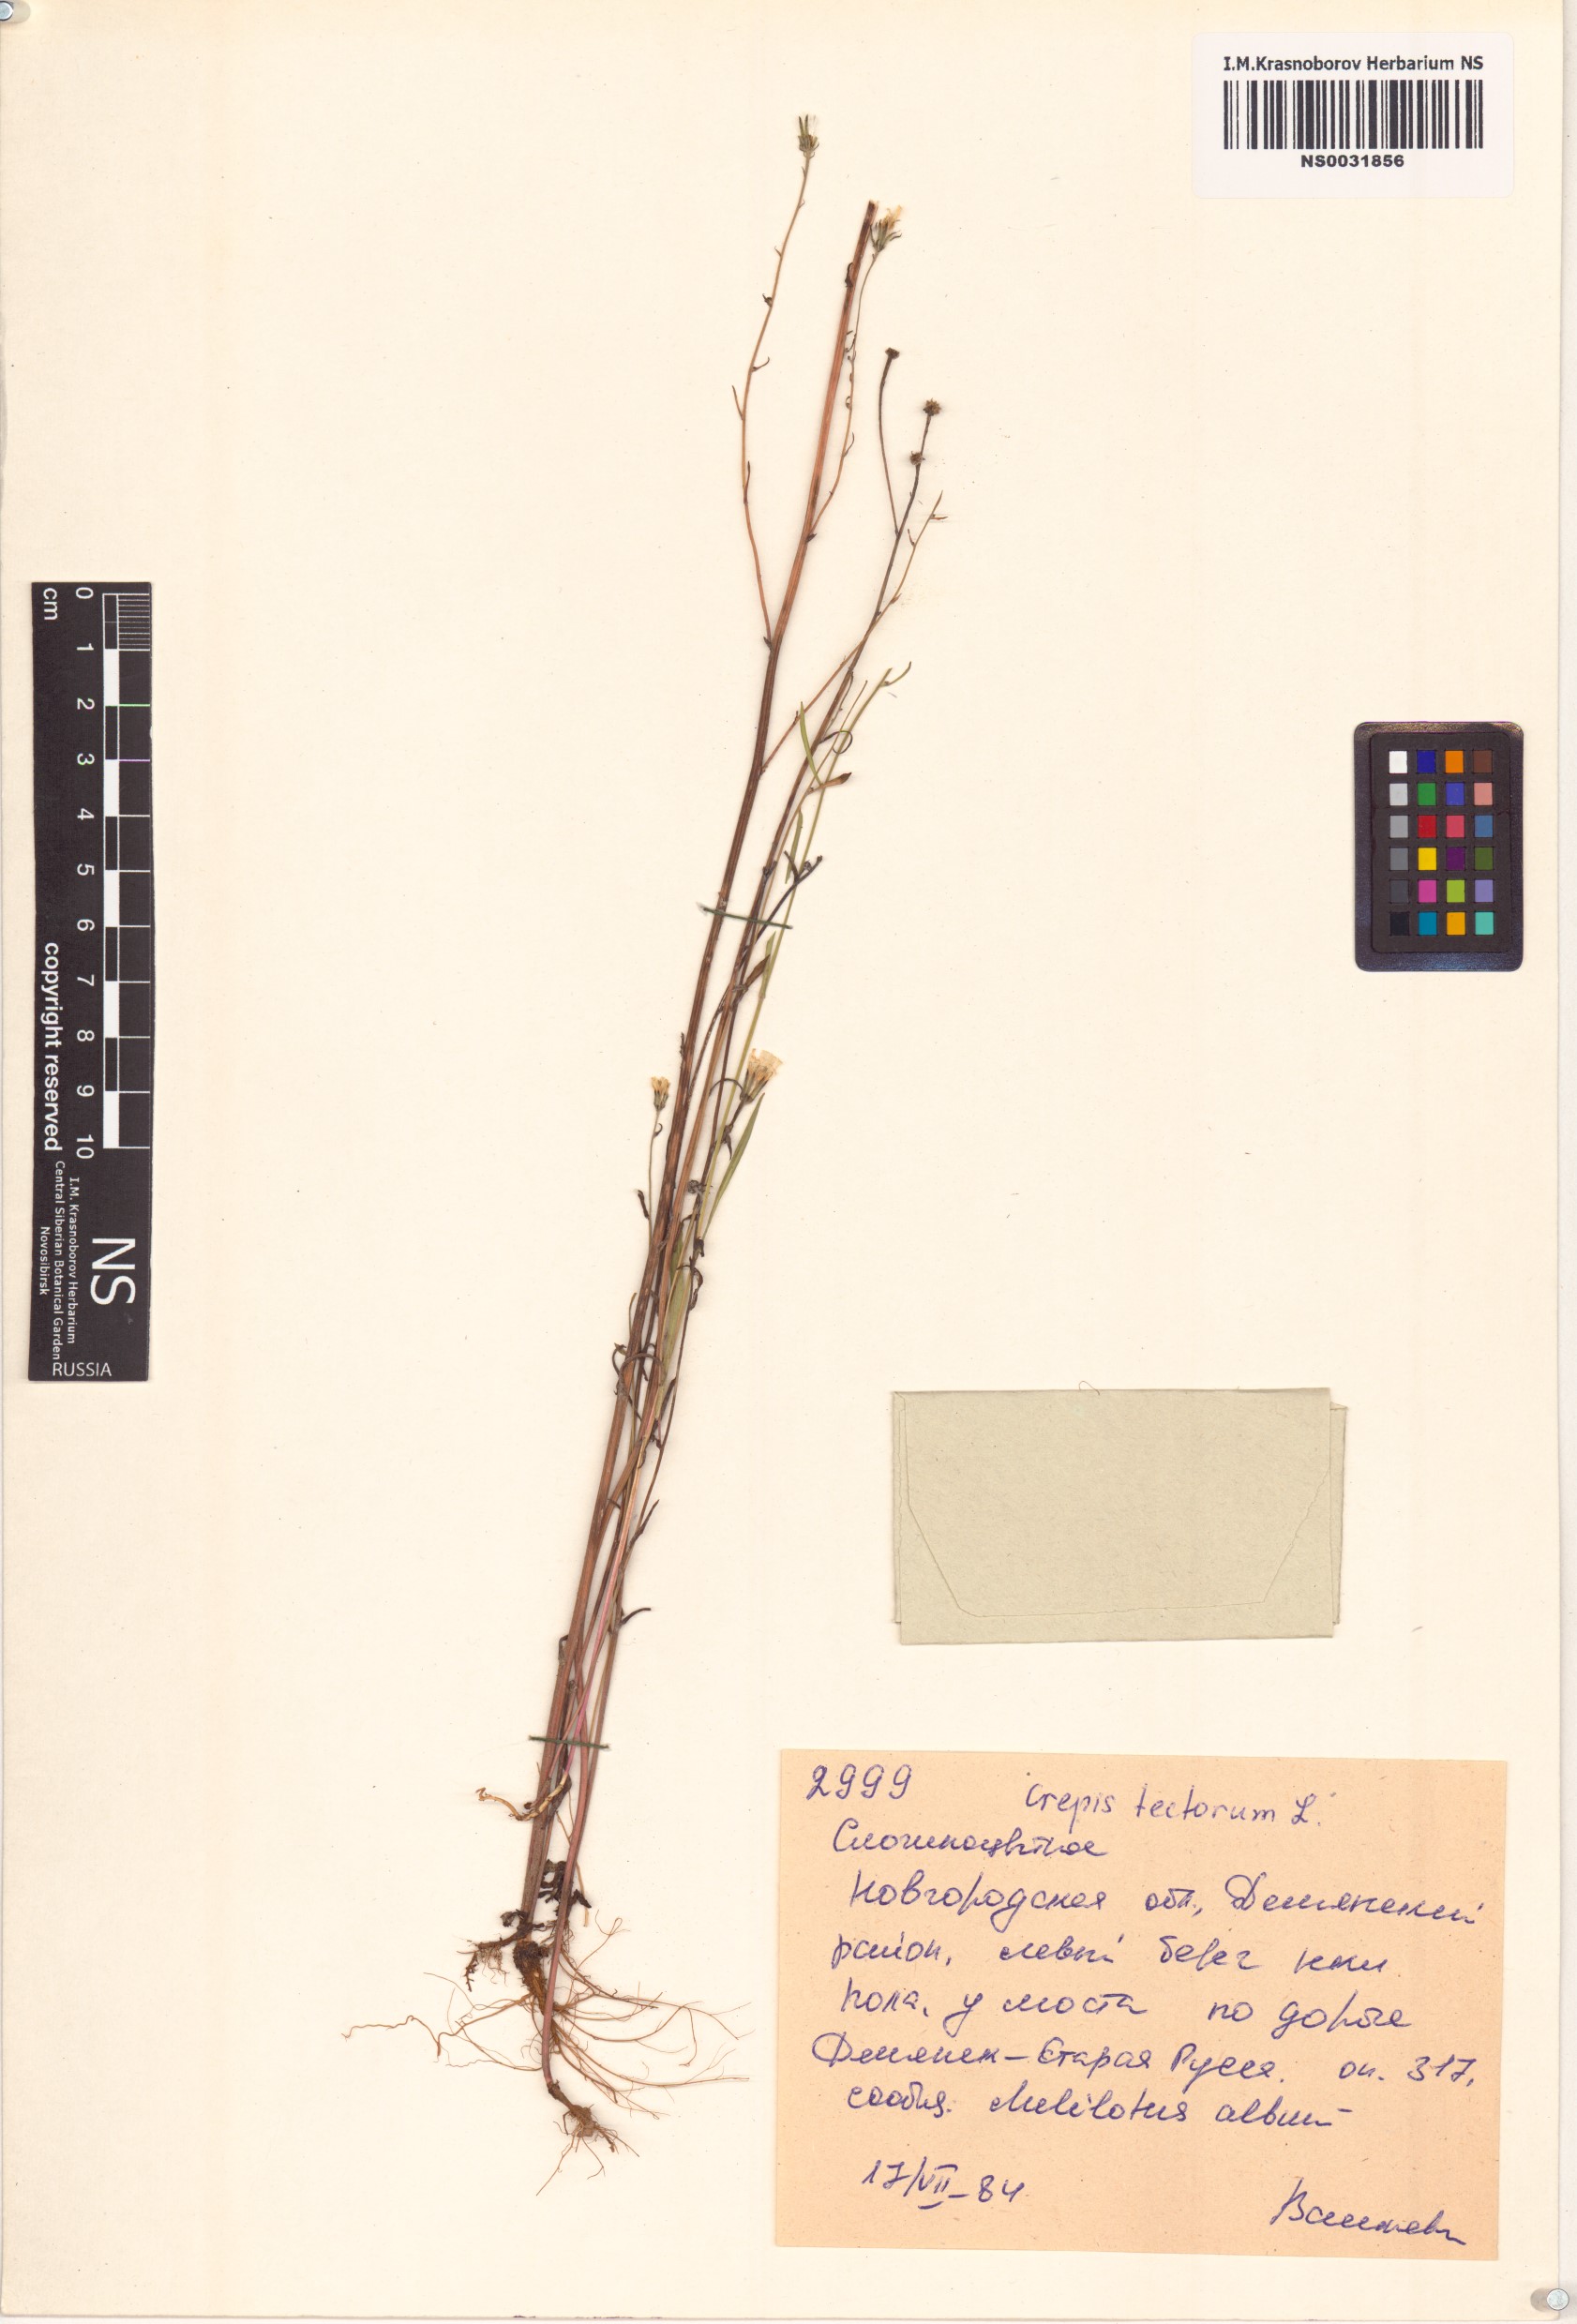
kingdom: Plantae
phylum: Tracheophyta
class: Magnoliopsida
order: Asterales
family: Asteraceae
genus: Crepis
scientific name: Crepis tectorum
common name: Narrow-leaved hawk's-beard
